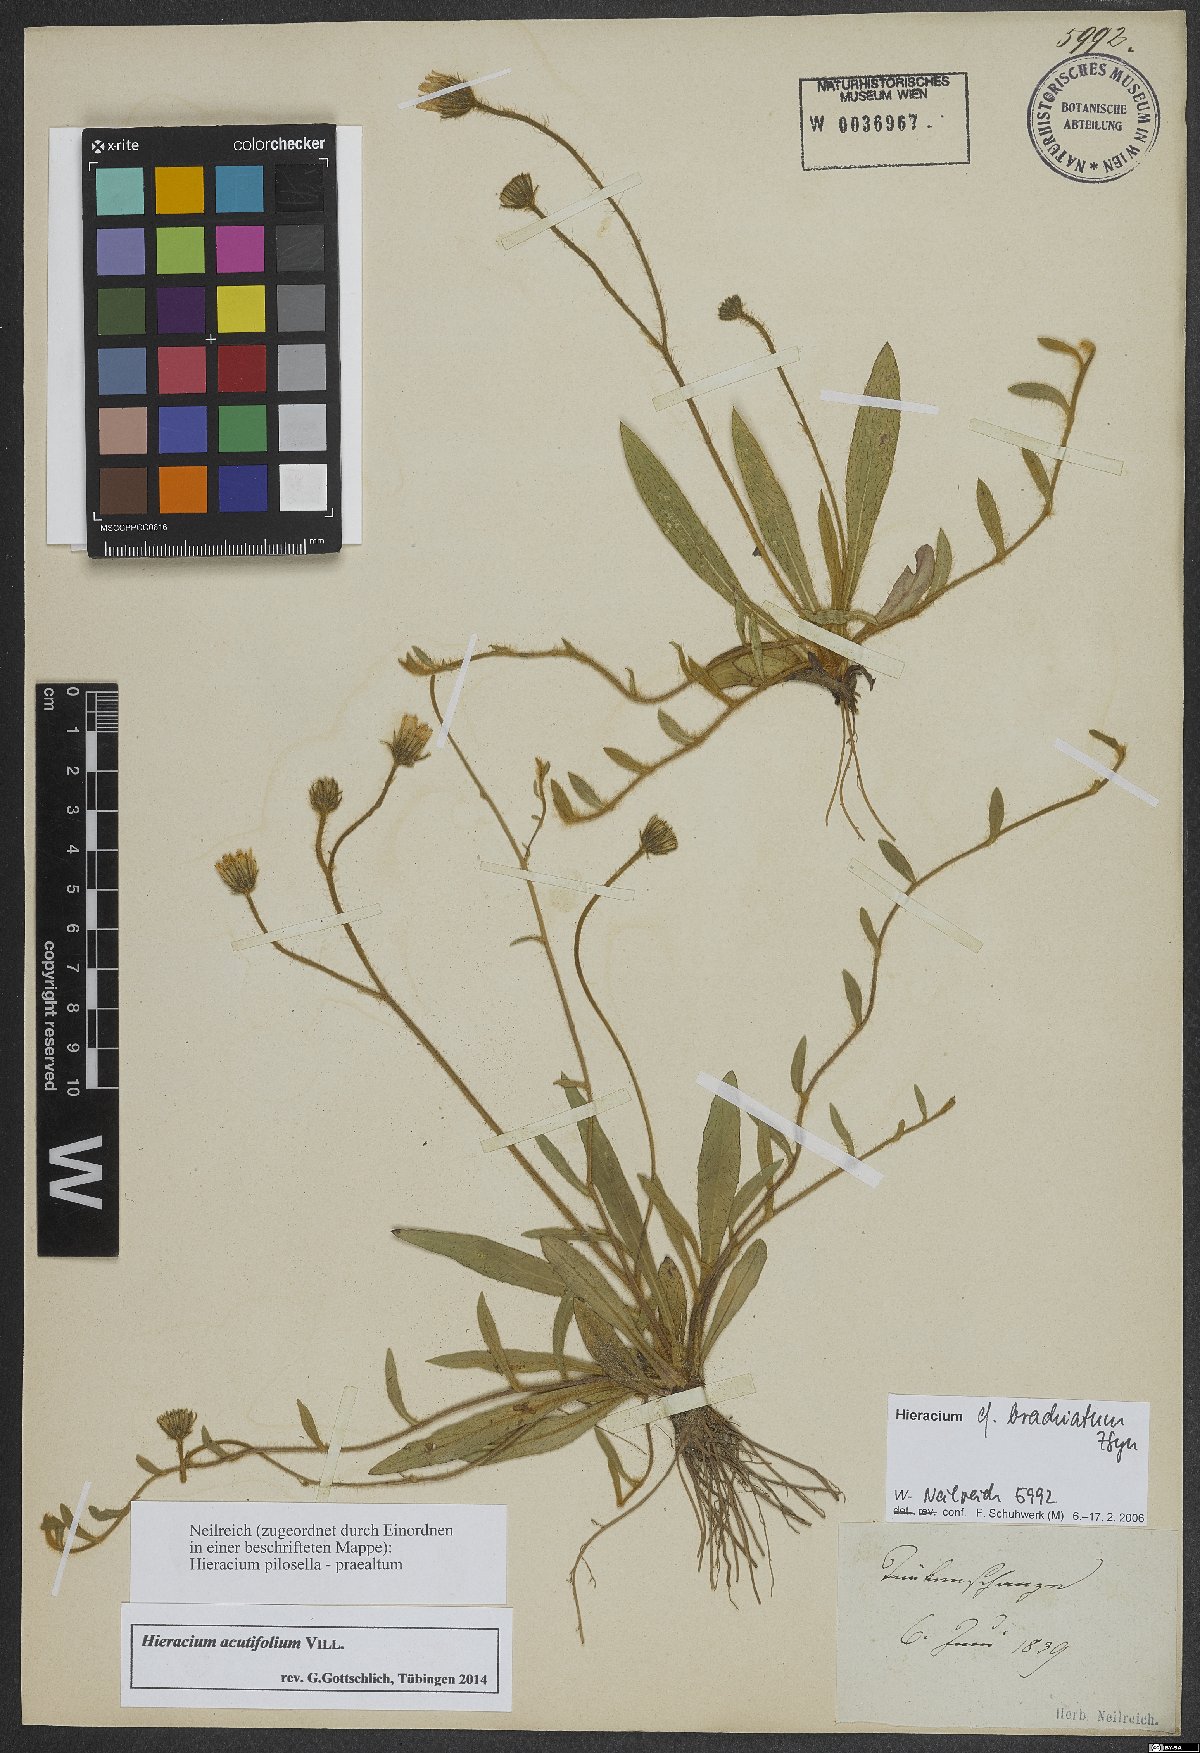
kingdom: Plantae
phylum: Tracheophyta
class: Magnoliopsida
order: Asterales
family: Asteraceae
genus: Pilosella
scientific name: Pilosella acutifolia
